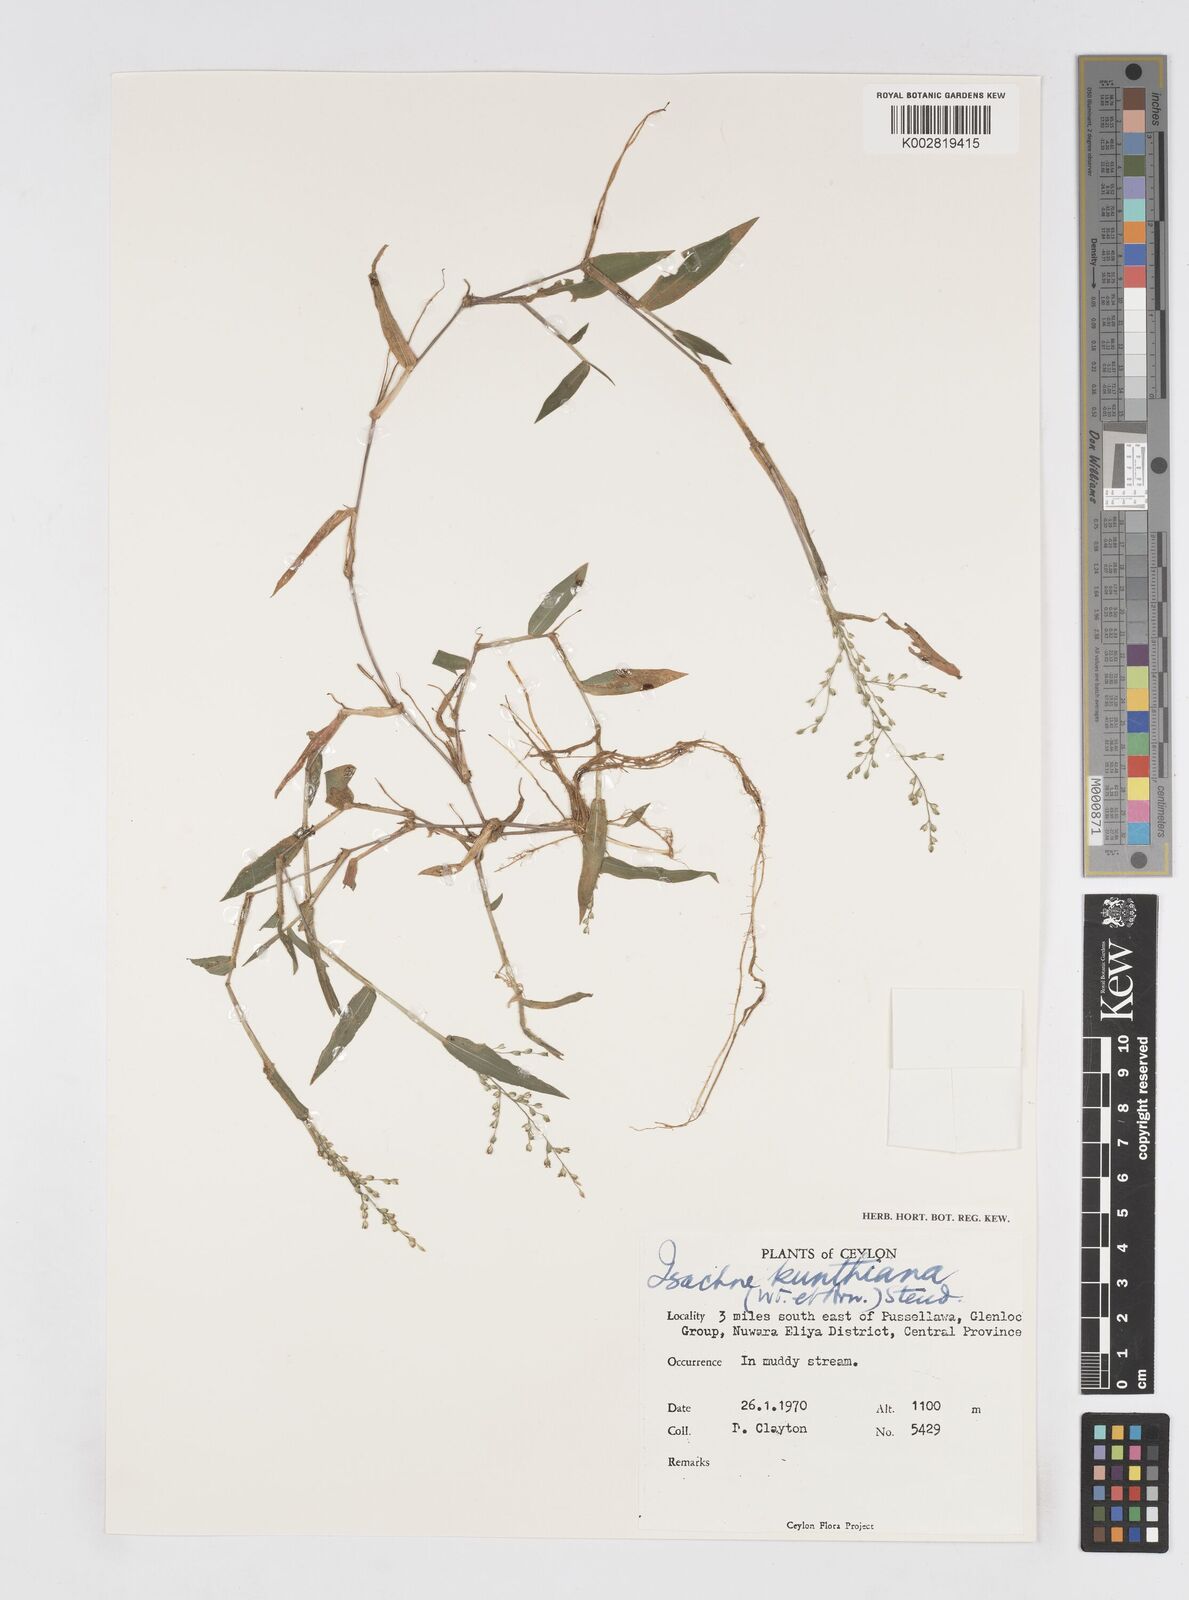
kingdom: Plantae
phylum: Tracheophyta
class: Liliopsida
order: Poales
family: Poaceae
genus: Isachne
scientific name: Isachne kunthiana
